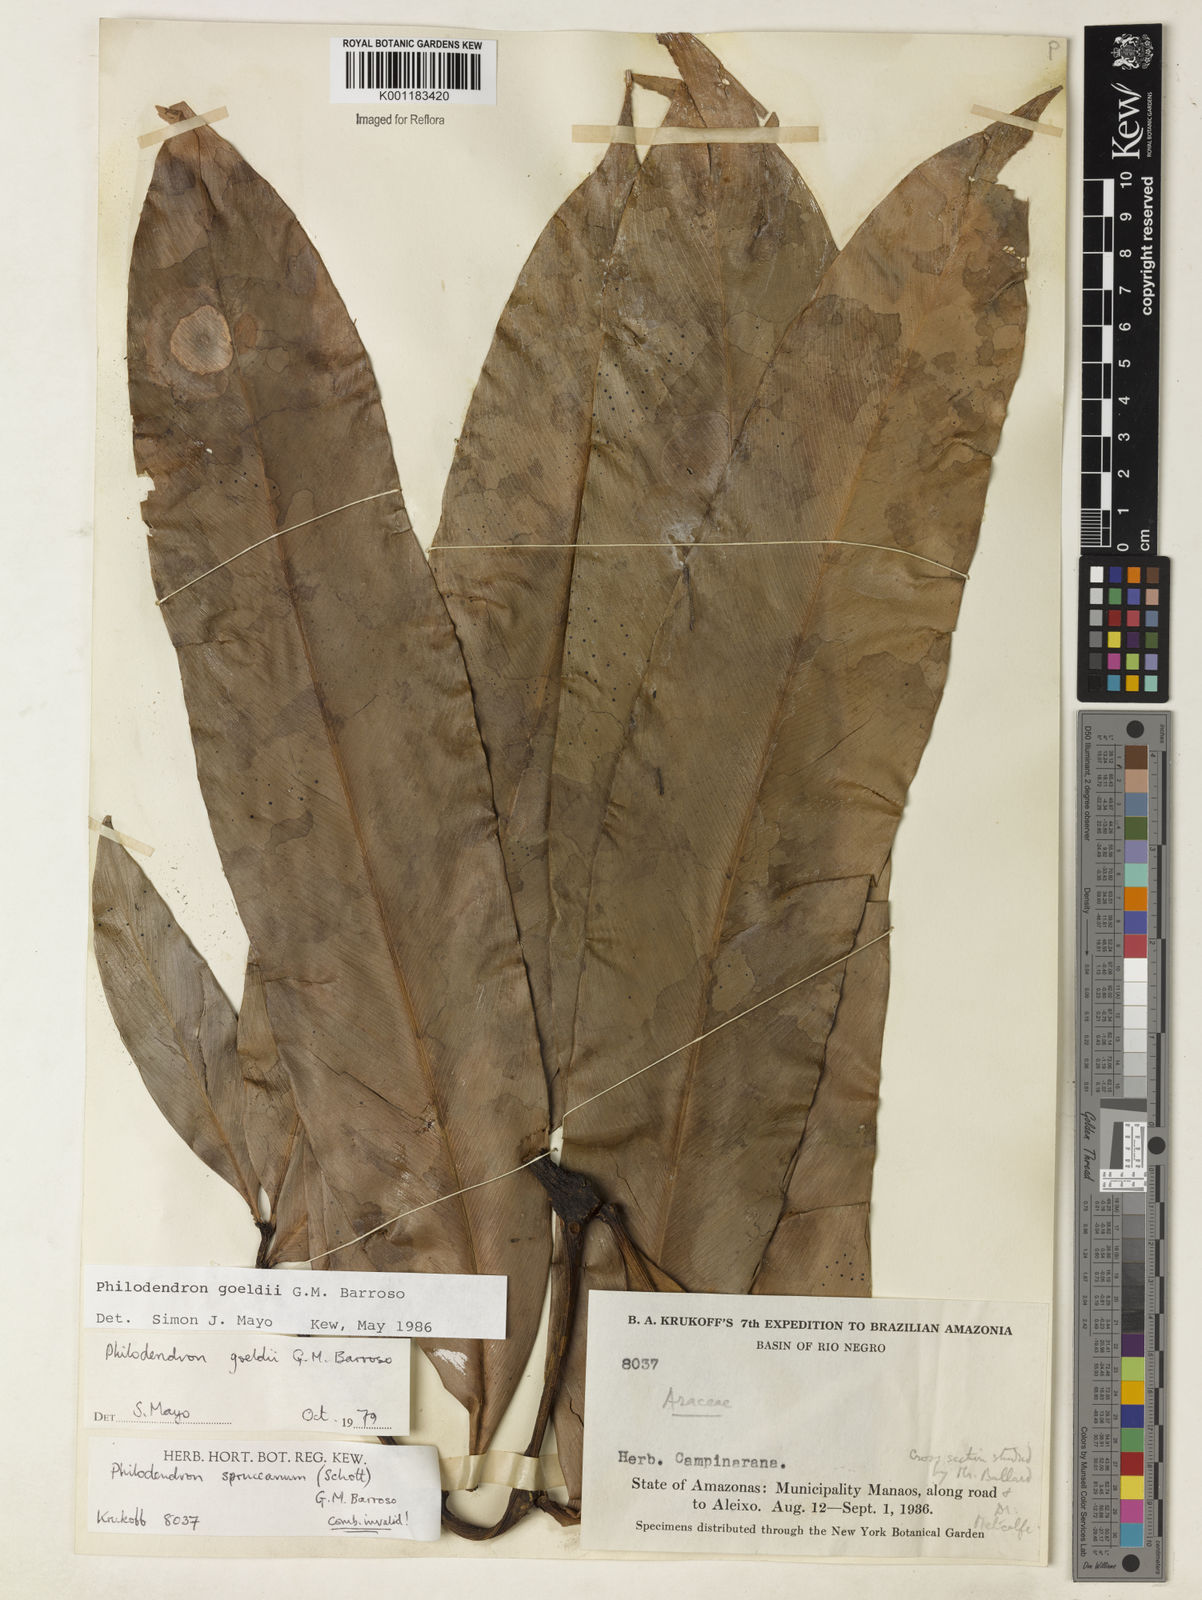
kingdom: Plantae
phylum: Tracheophyta
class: Liliopsida
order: Alismatales
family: Araceae
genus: Thaumatophyllum
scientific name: Thaumatophyllum spruceanum
